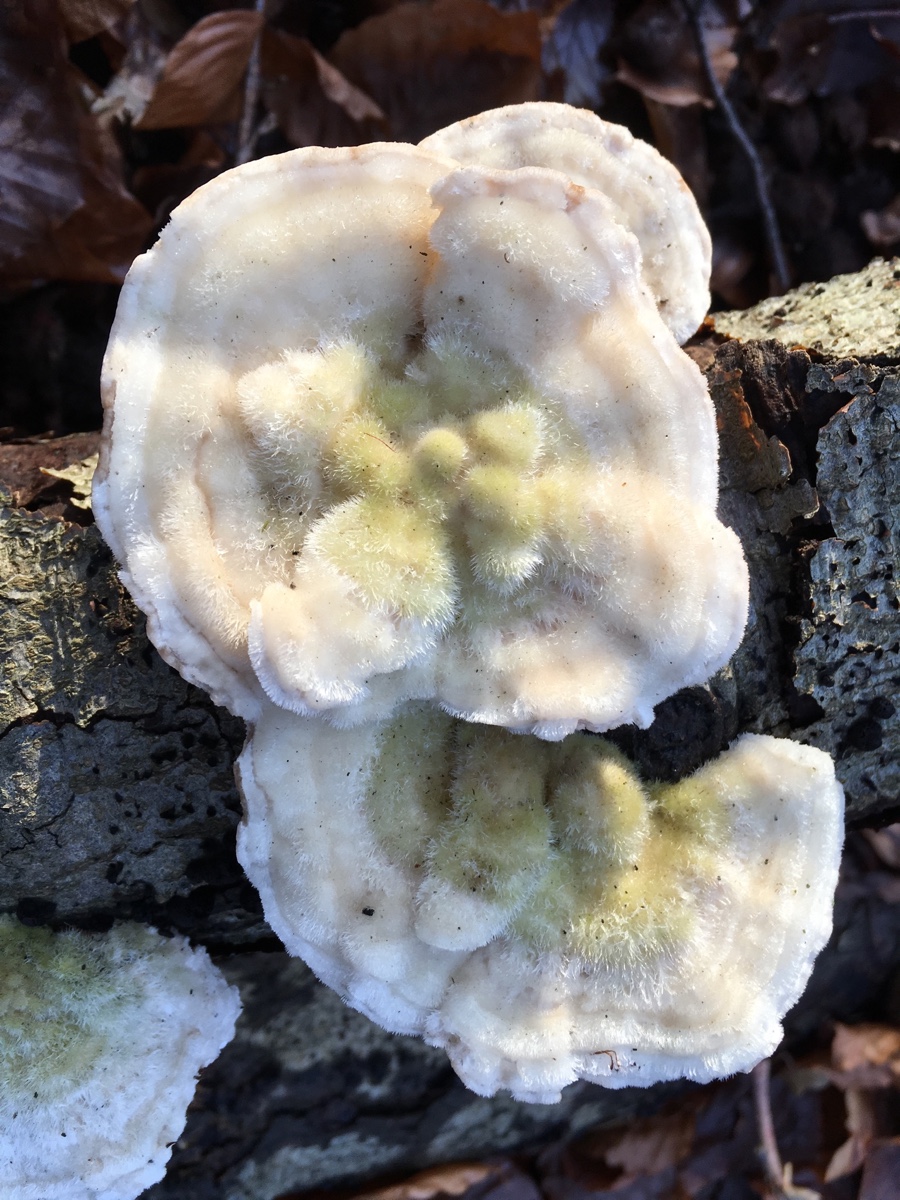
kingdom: Fungi
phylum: Basidiomycota
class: Agaricomycetes
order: Polyporales
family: Polyporaceae
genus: Trametes
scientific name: Trametes hirsuta
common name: håret læderporesvamp
